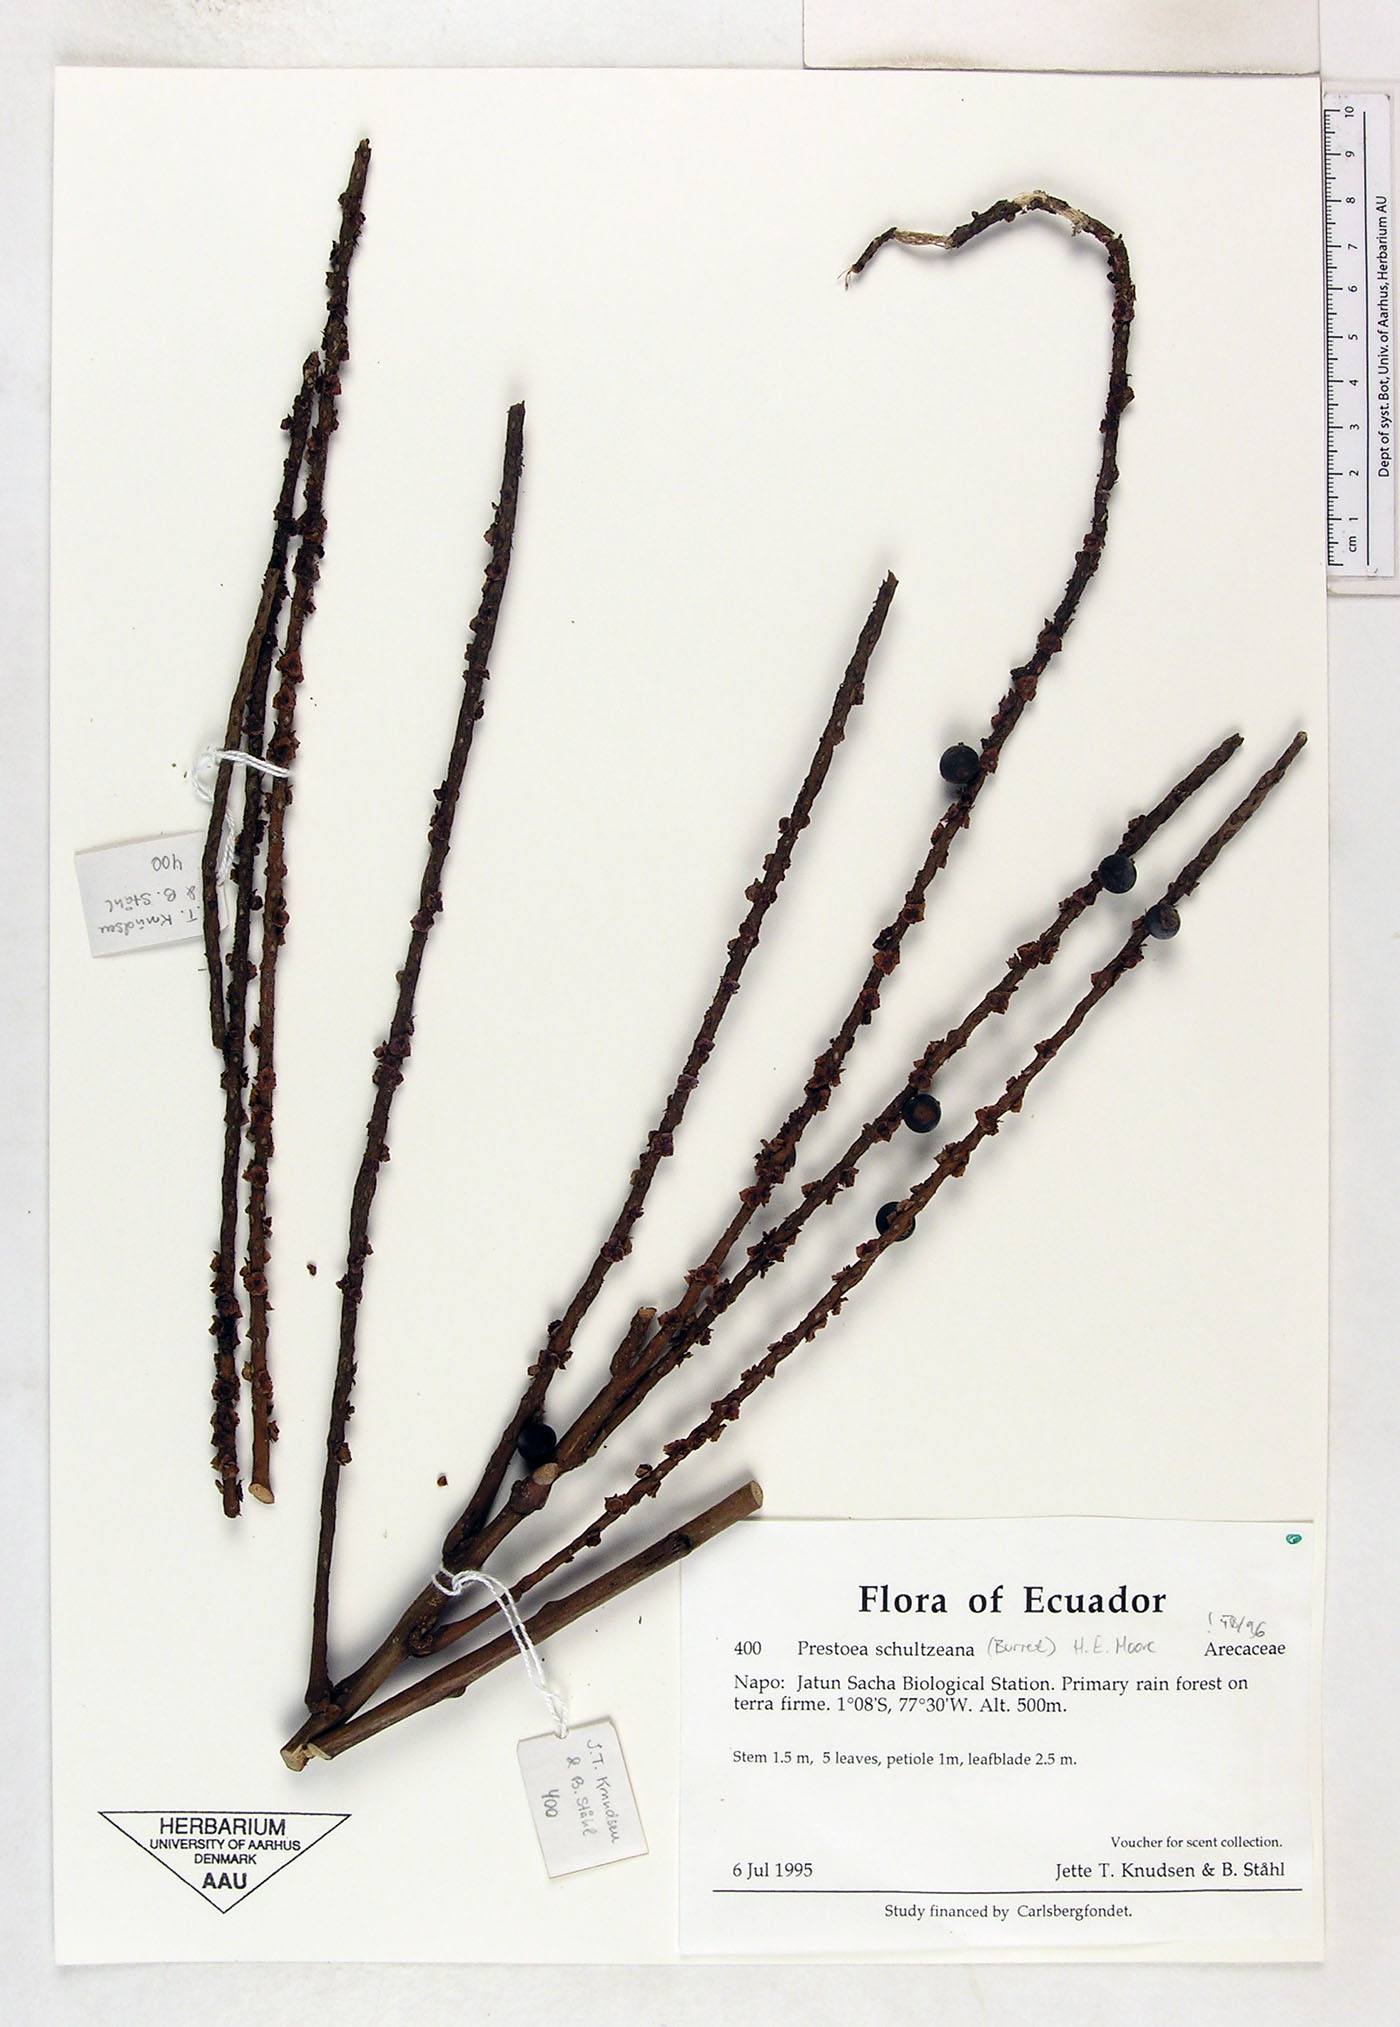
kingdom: Plantae
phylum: Tracheophyta
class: Liliopsida
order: Arecales
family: Arecaceae
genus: Prestoea
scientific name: Prestoea schultzeana
